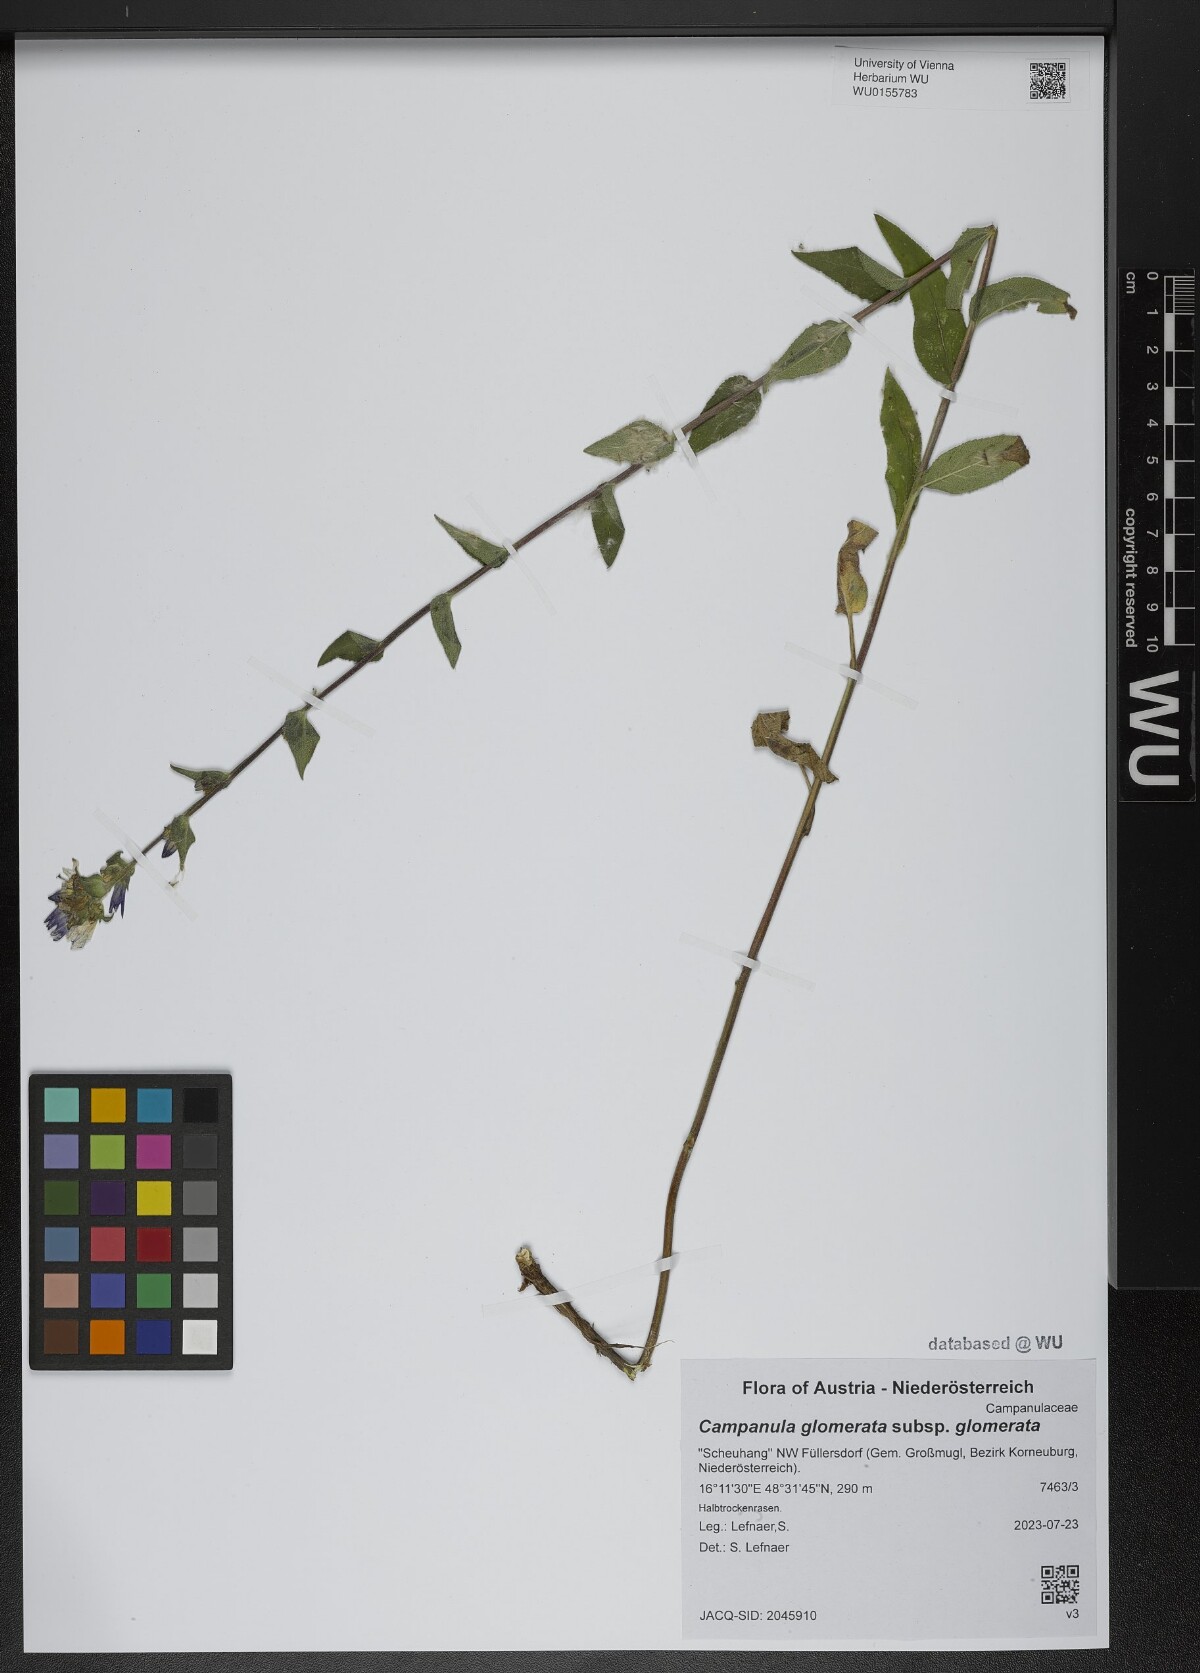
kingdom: Plantae
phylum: Tracheophyta
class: Magnoliopsida
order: Asterales
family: Campanulaceae
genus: Campanula
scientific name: Campanula glomerata
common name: Clustered bellflower
